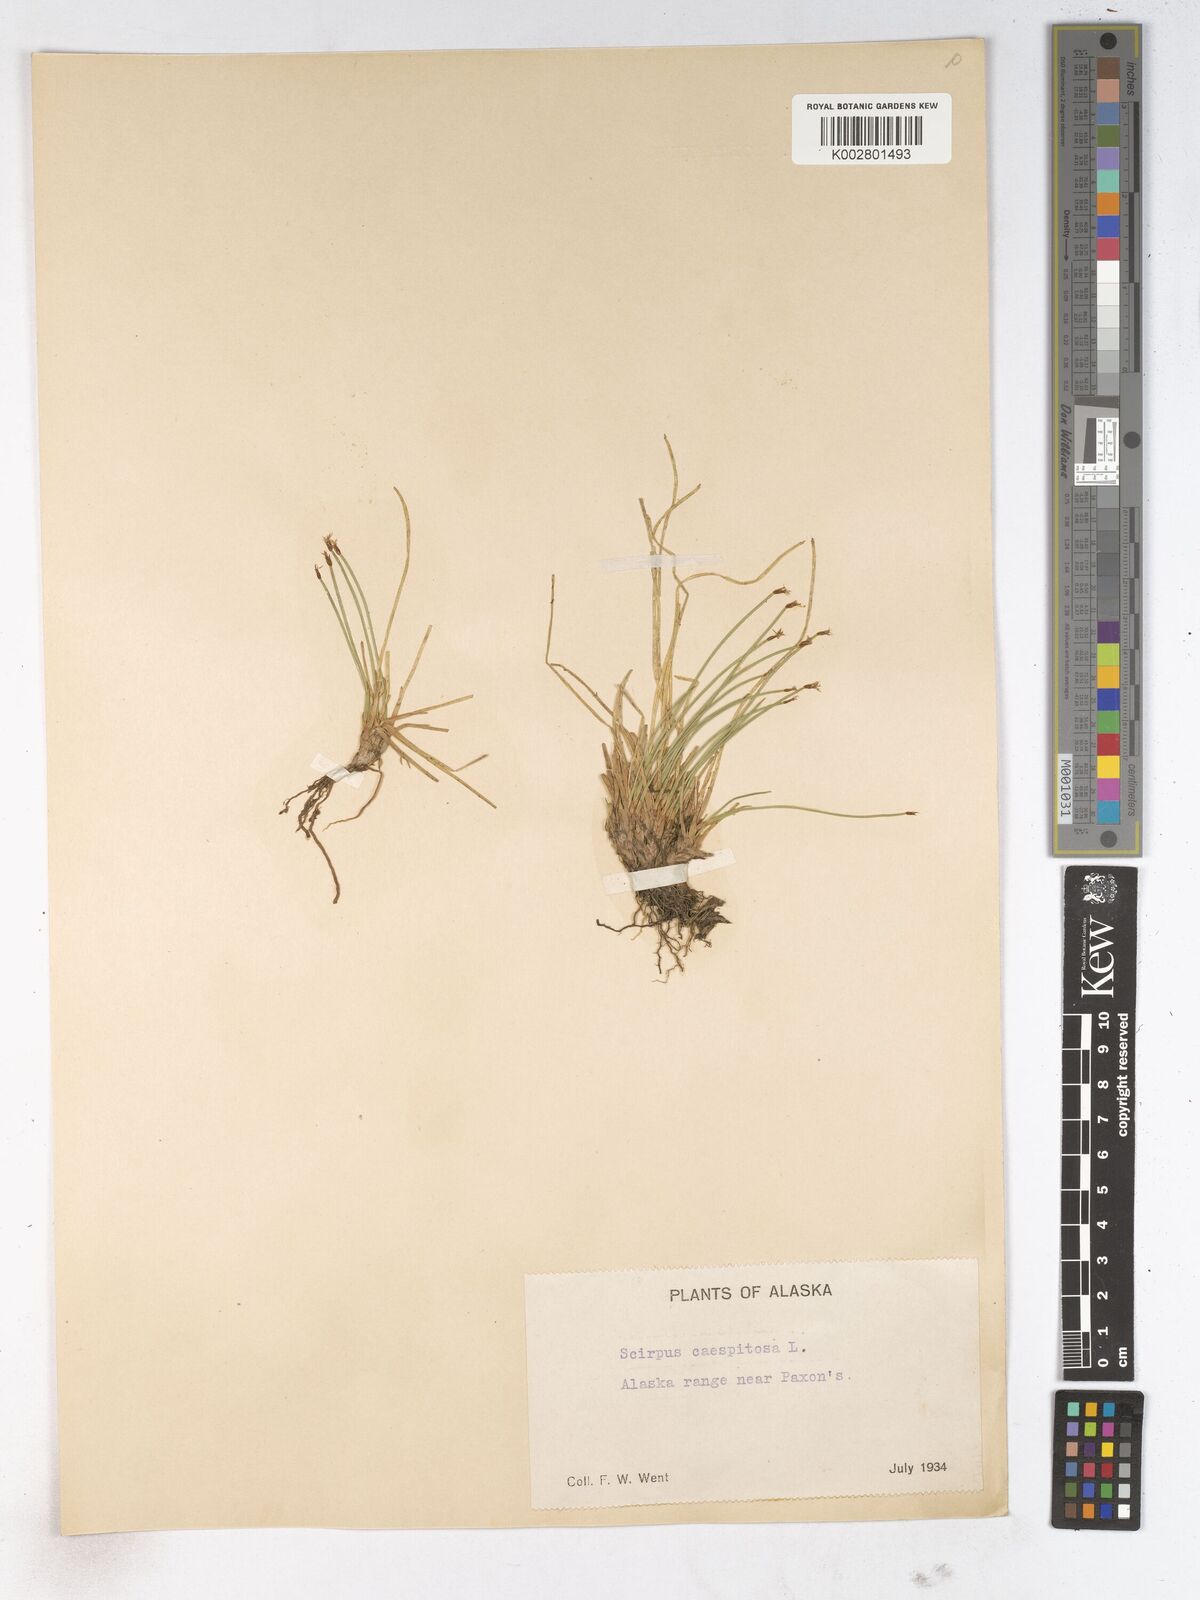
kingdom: Plantae
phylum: Tracheophyta
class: Liliopsida
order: Poales
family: Cyperaceae
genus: Trichophorum
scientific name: Trichophorum cespitosum
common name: Cespitose bulrush
